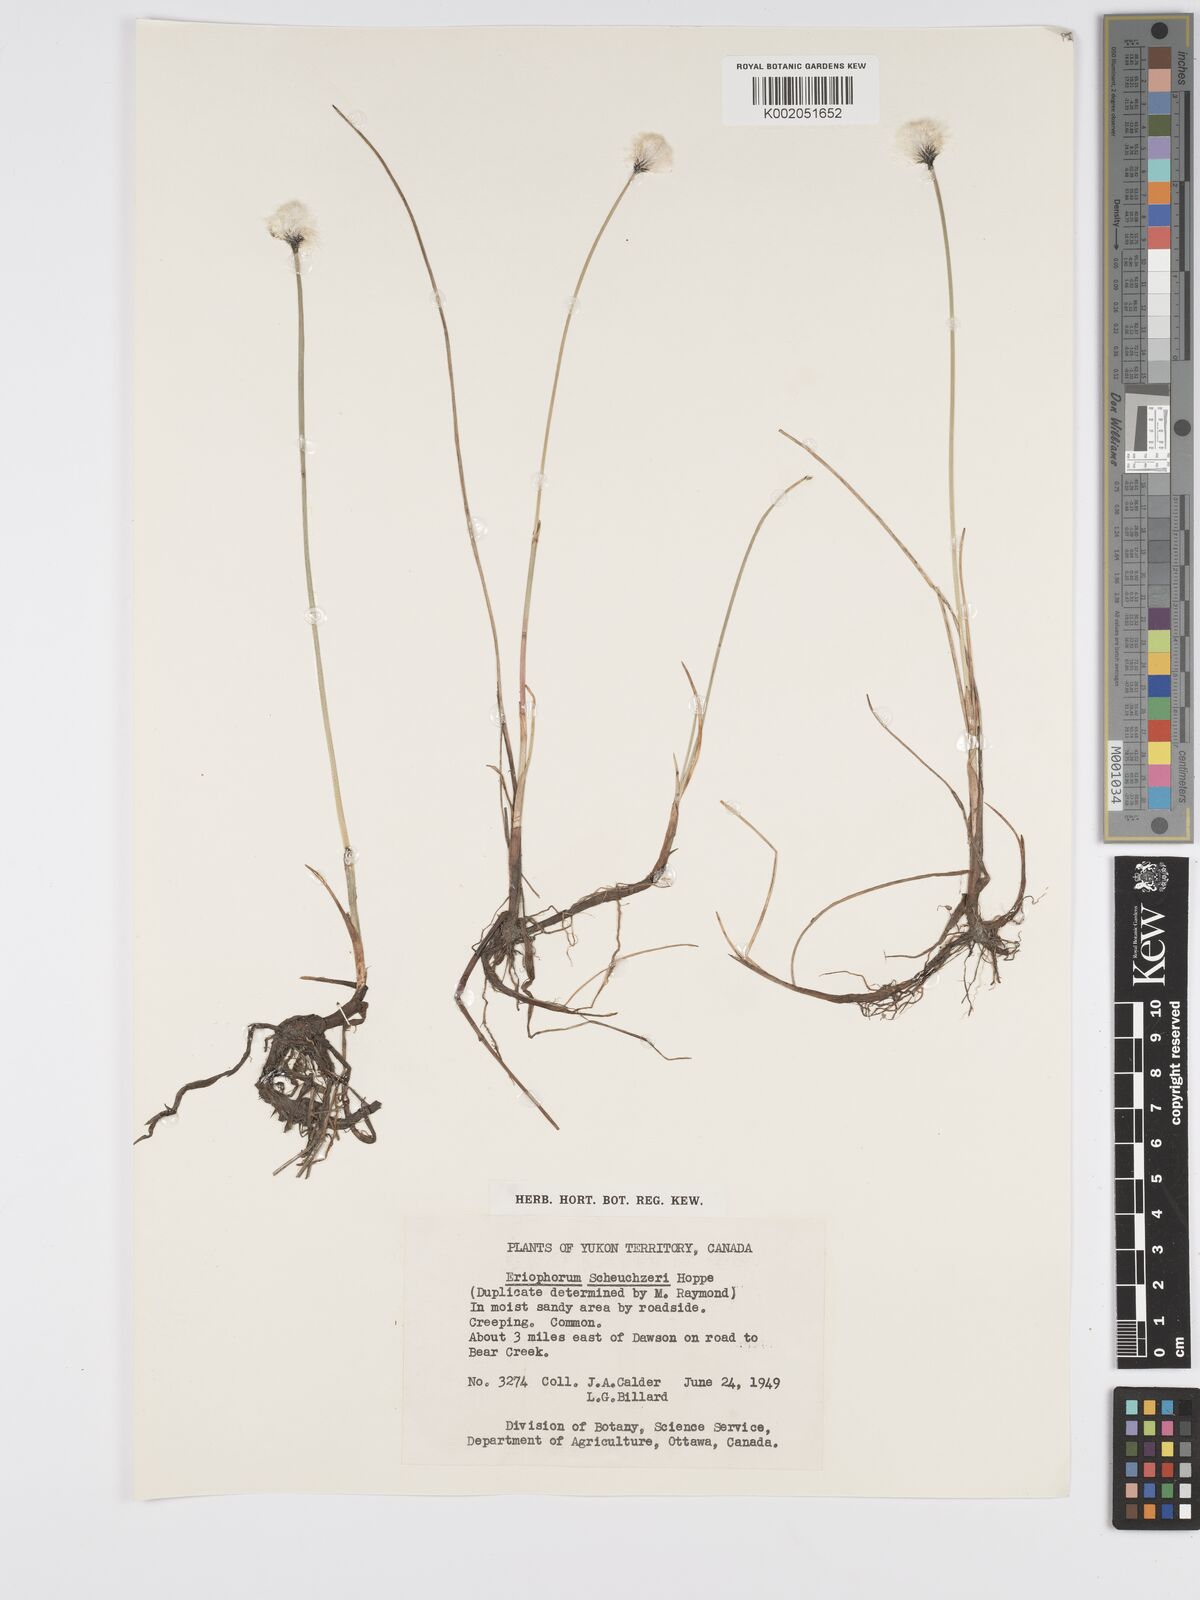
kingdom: Plantae
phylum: Tracheophyta
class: Liliopsida
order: Poales
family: Cyperaceae
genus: Eriophorum
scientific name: Eriophorum chamissonis
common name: Chamisso's cottongrass
